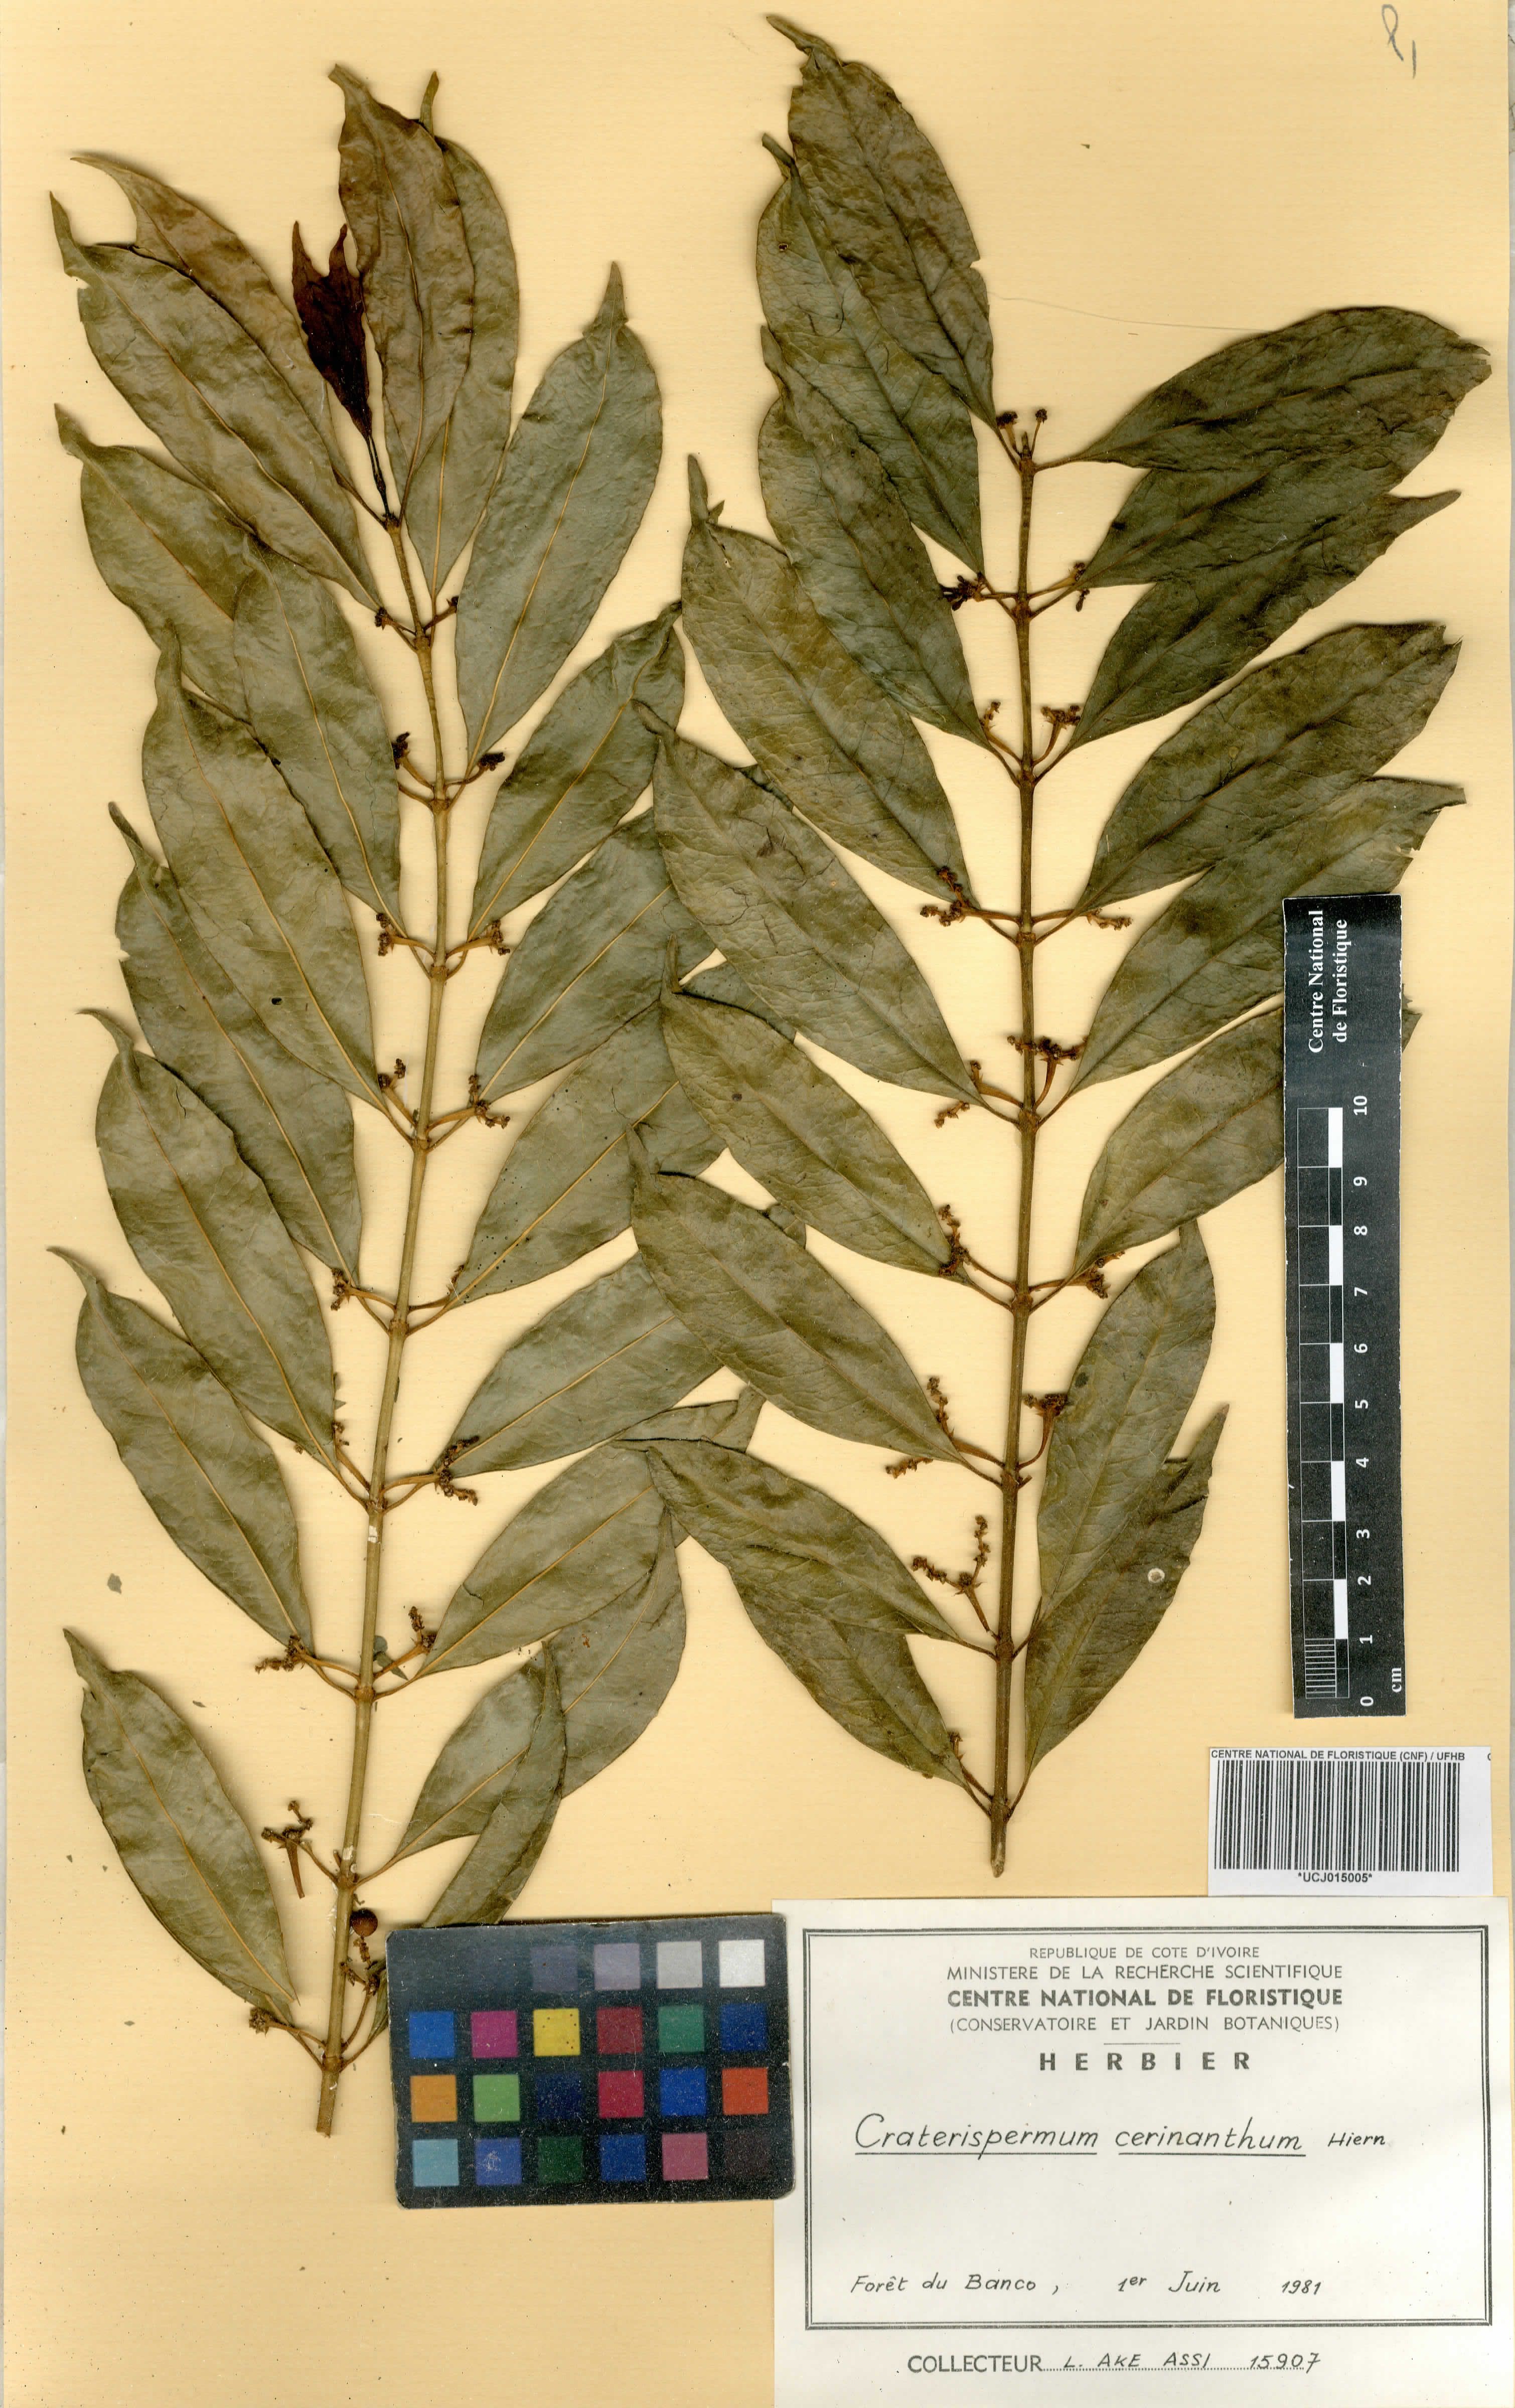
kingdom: Plantae
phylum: Tracheophyta
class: Magnoliopsida
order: Gentianales
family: Rubiaceae
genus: Craterispermum
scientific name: Craterispermum cerinanthum
